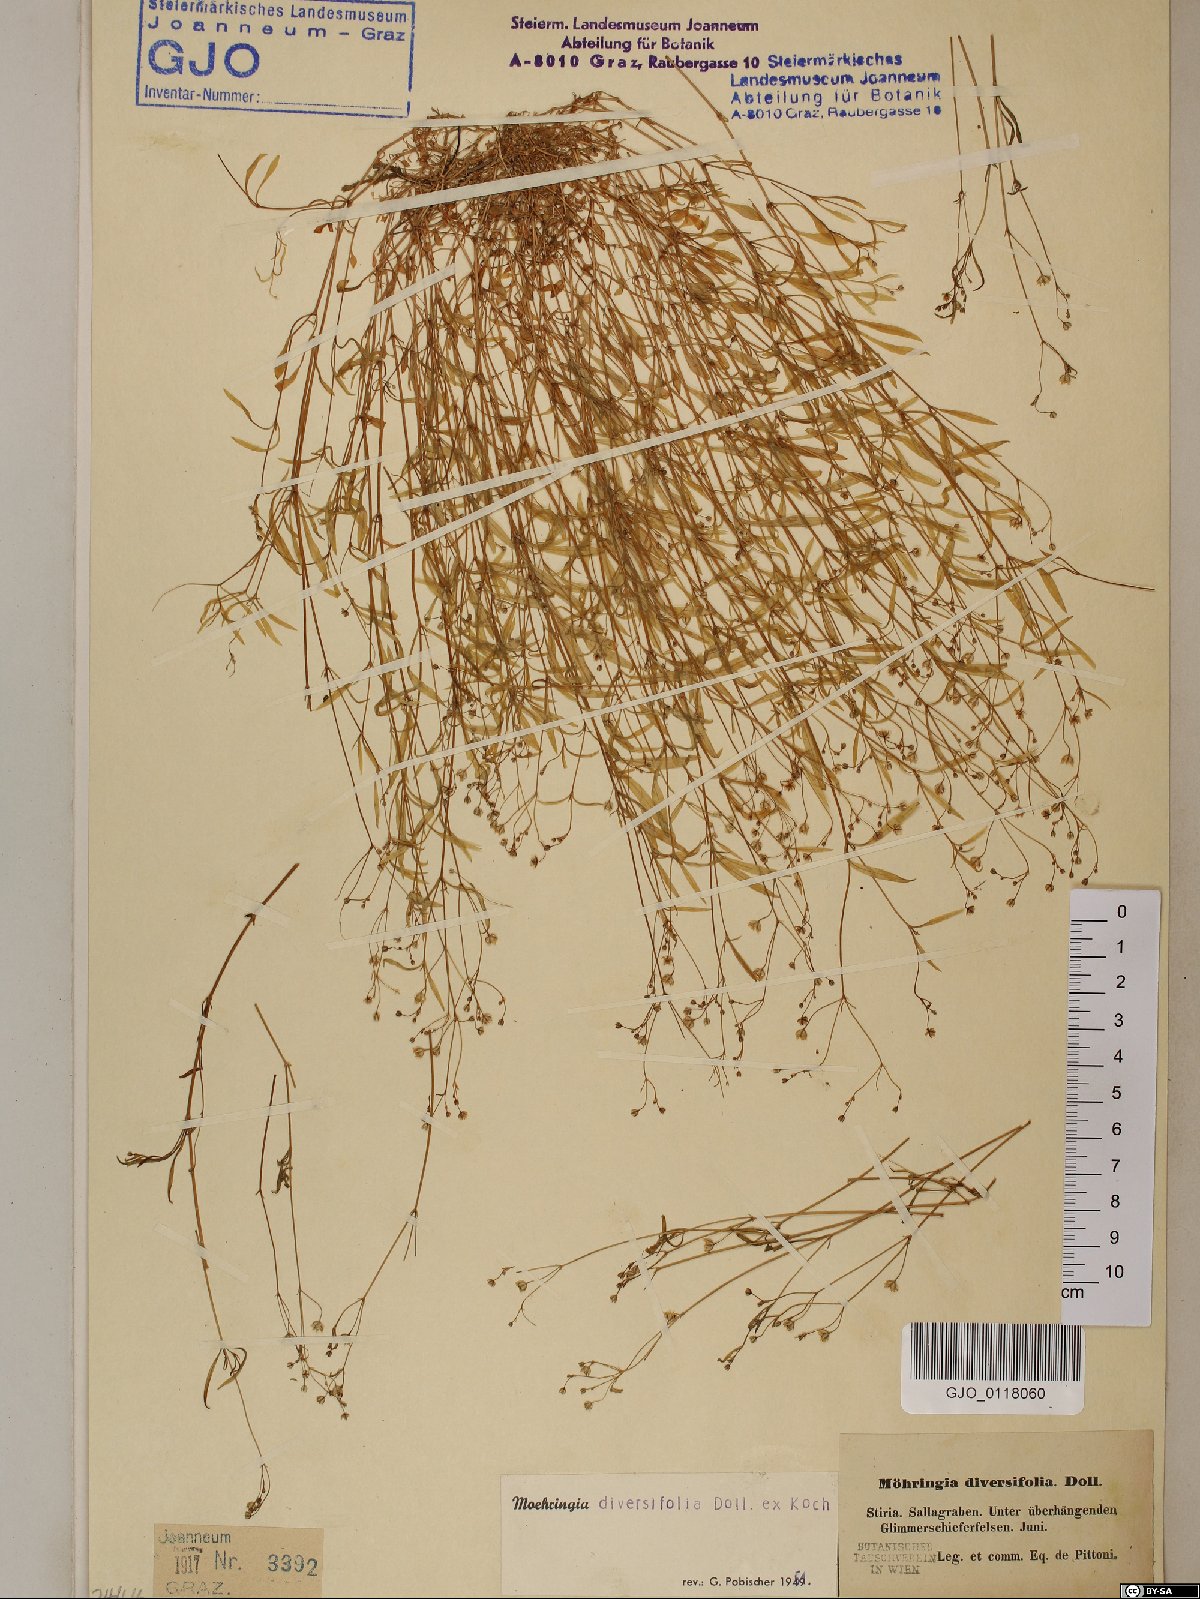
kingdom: Plantae
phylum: Tracheophyta
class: Magnoliopsida
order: Caryophyllales
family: Caryophyllaceae
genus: Moehringia
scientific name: Moehringia diversifolia
